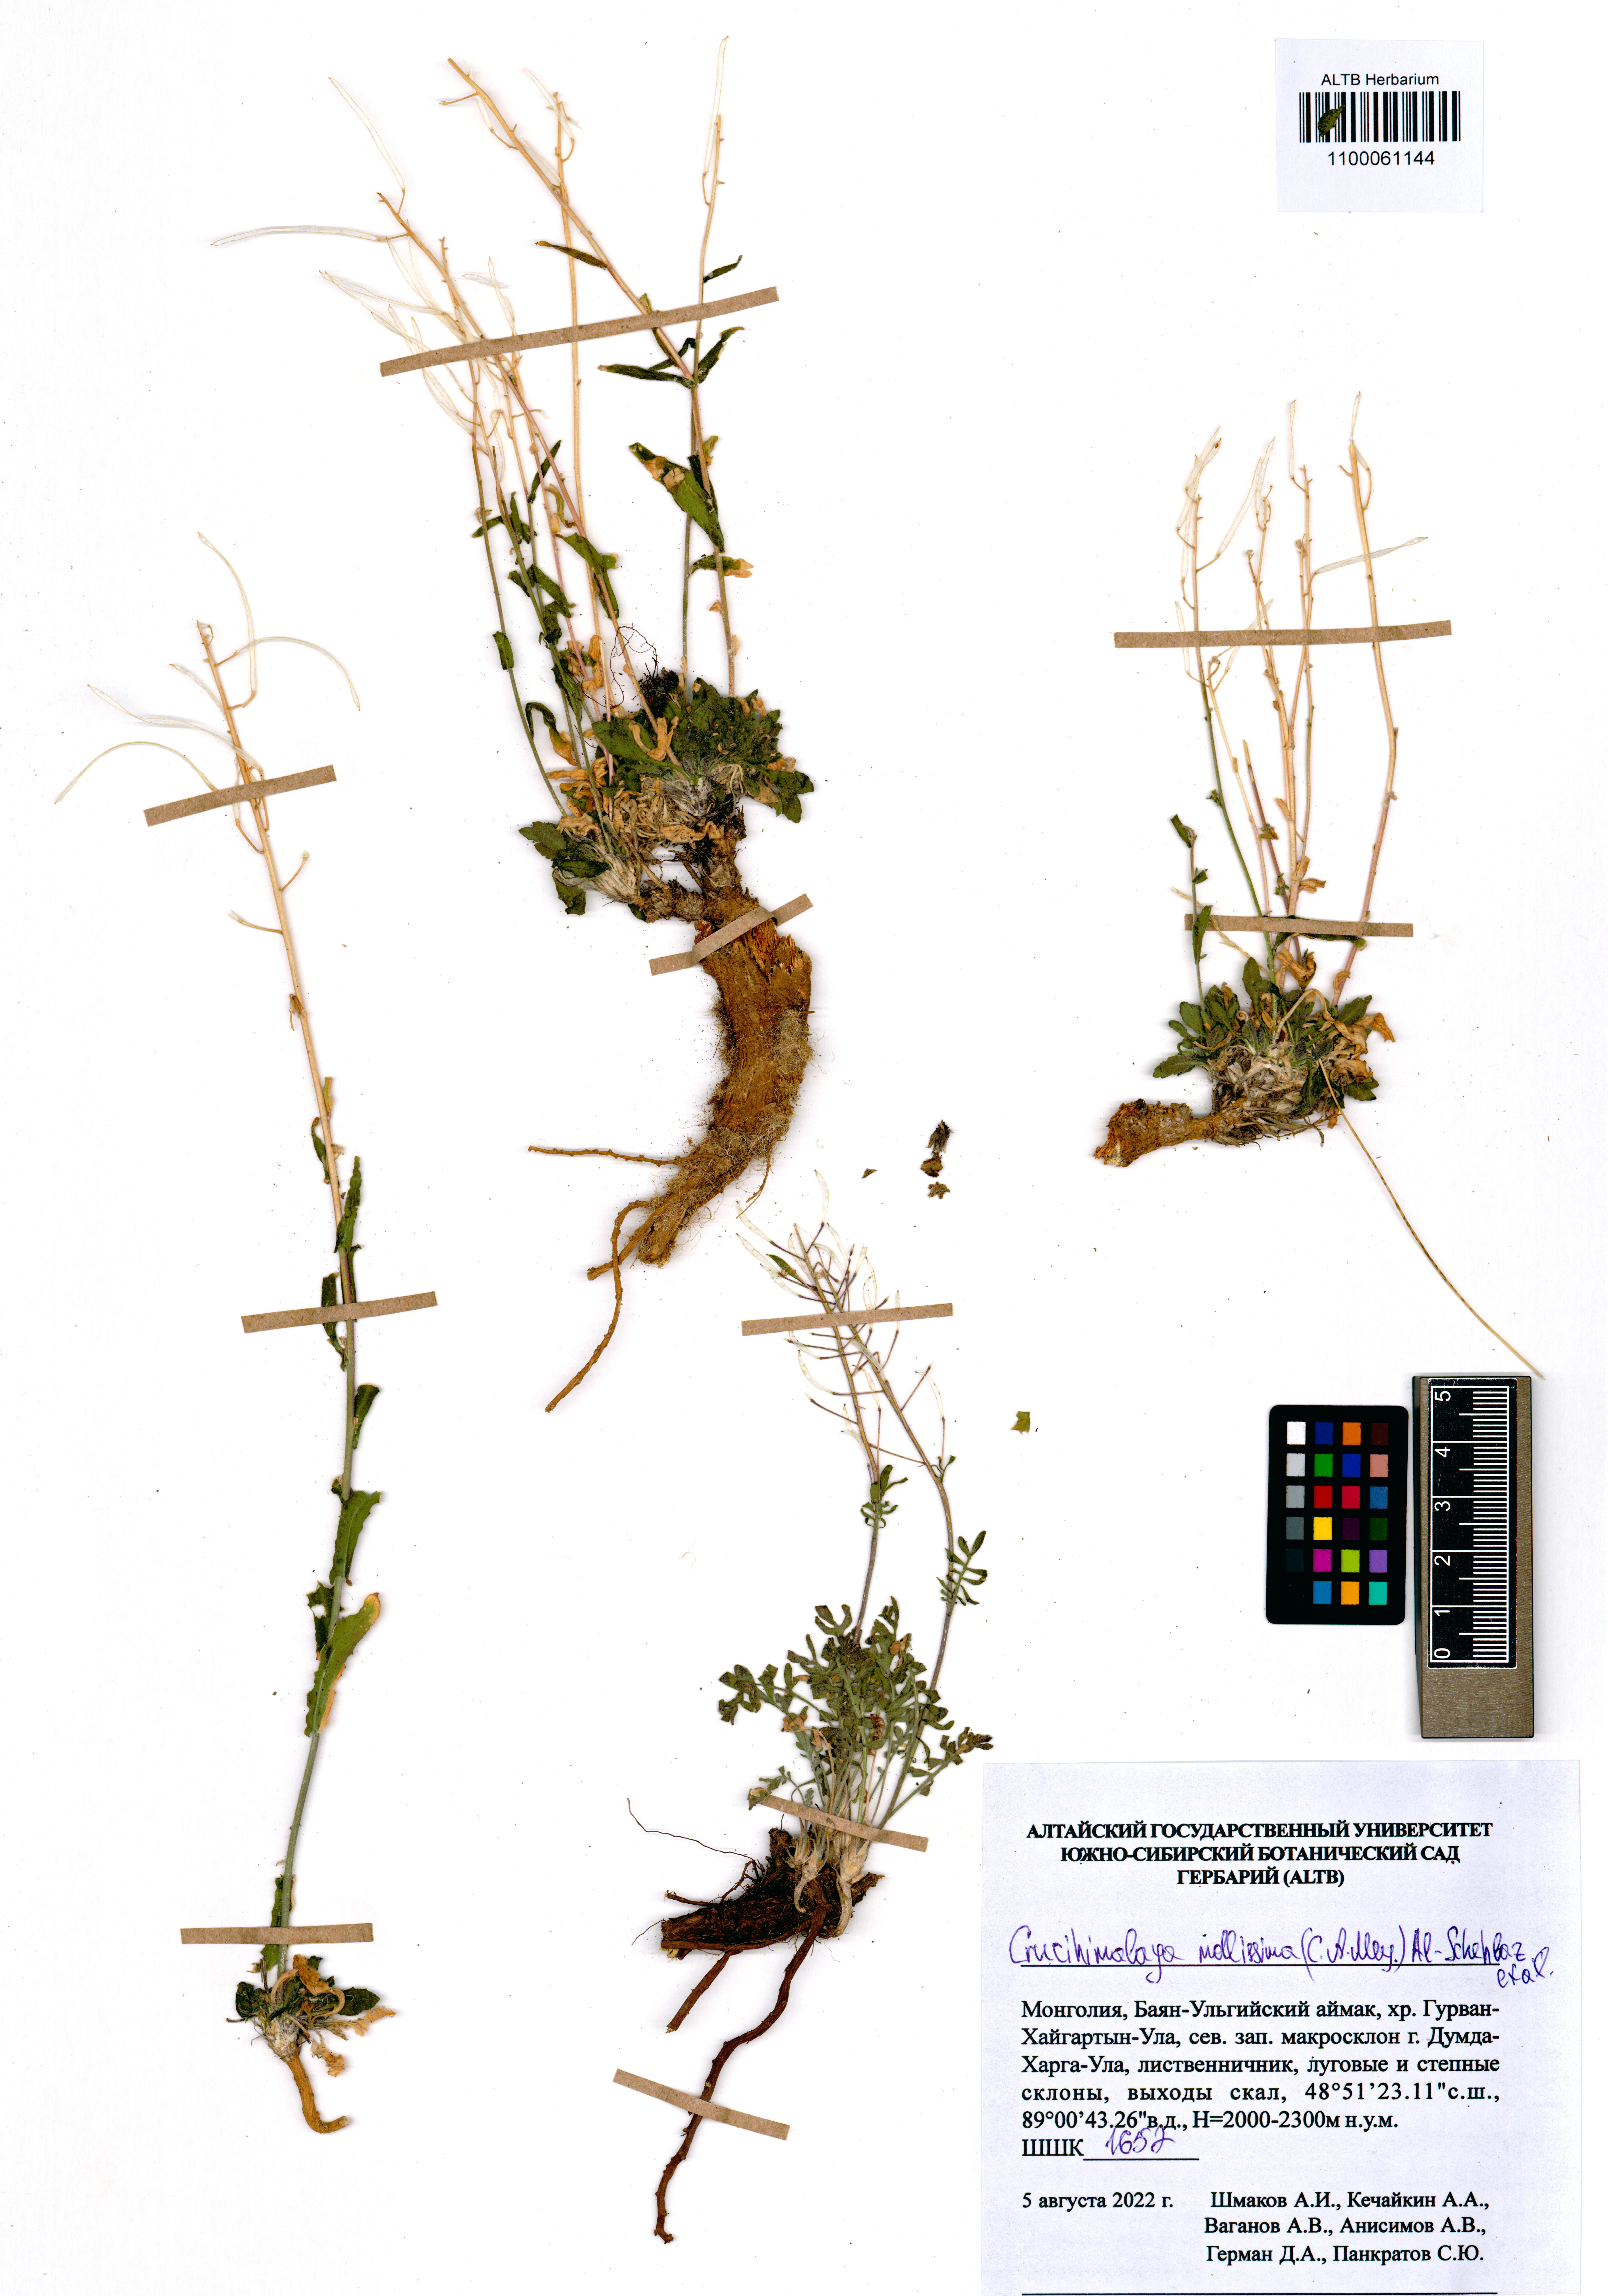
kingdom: Plantae
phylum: Tracheophyta
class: Magnoliopsida
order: Brassicales
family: Brassicaceae
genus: Crucihimalaya
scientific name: Crucihimalaya mollissima
